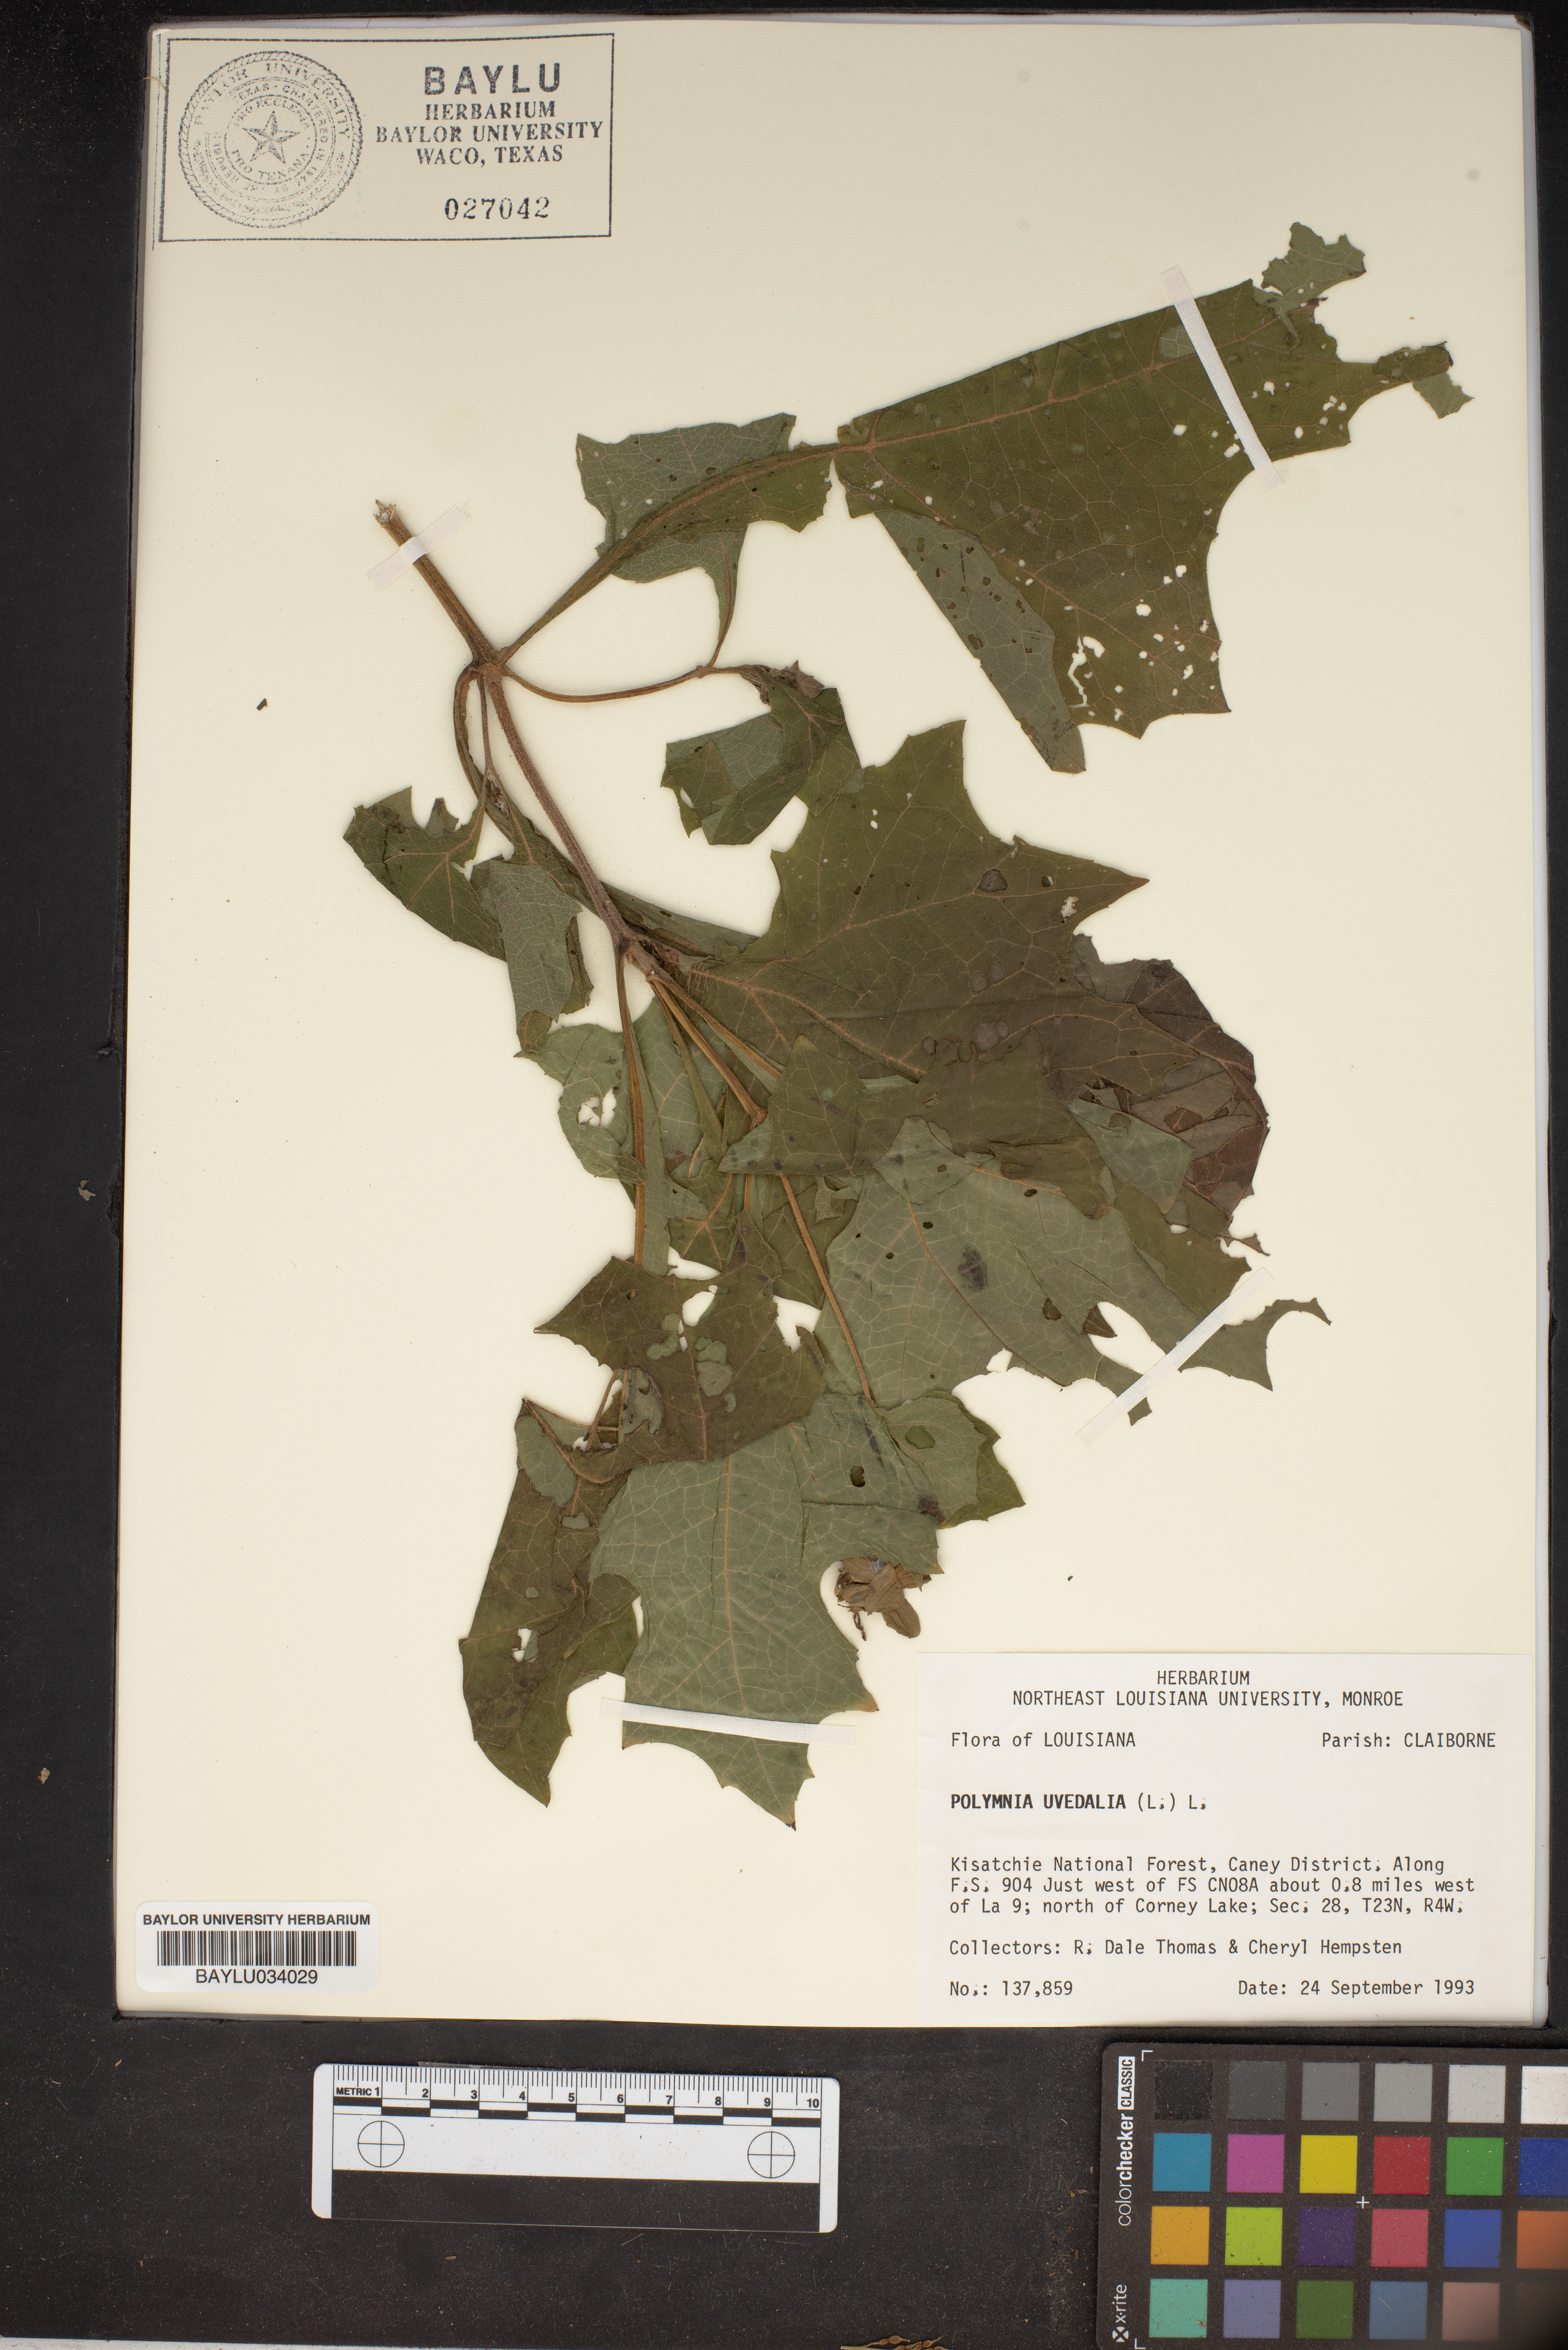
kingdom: Plantae
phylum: Tracheophyta
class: Magnoliopsida
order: Asterales
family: Asteraceae
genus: Smallanthus
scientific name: Smallanthus uvedalia
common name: Bear's-foot
